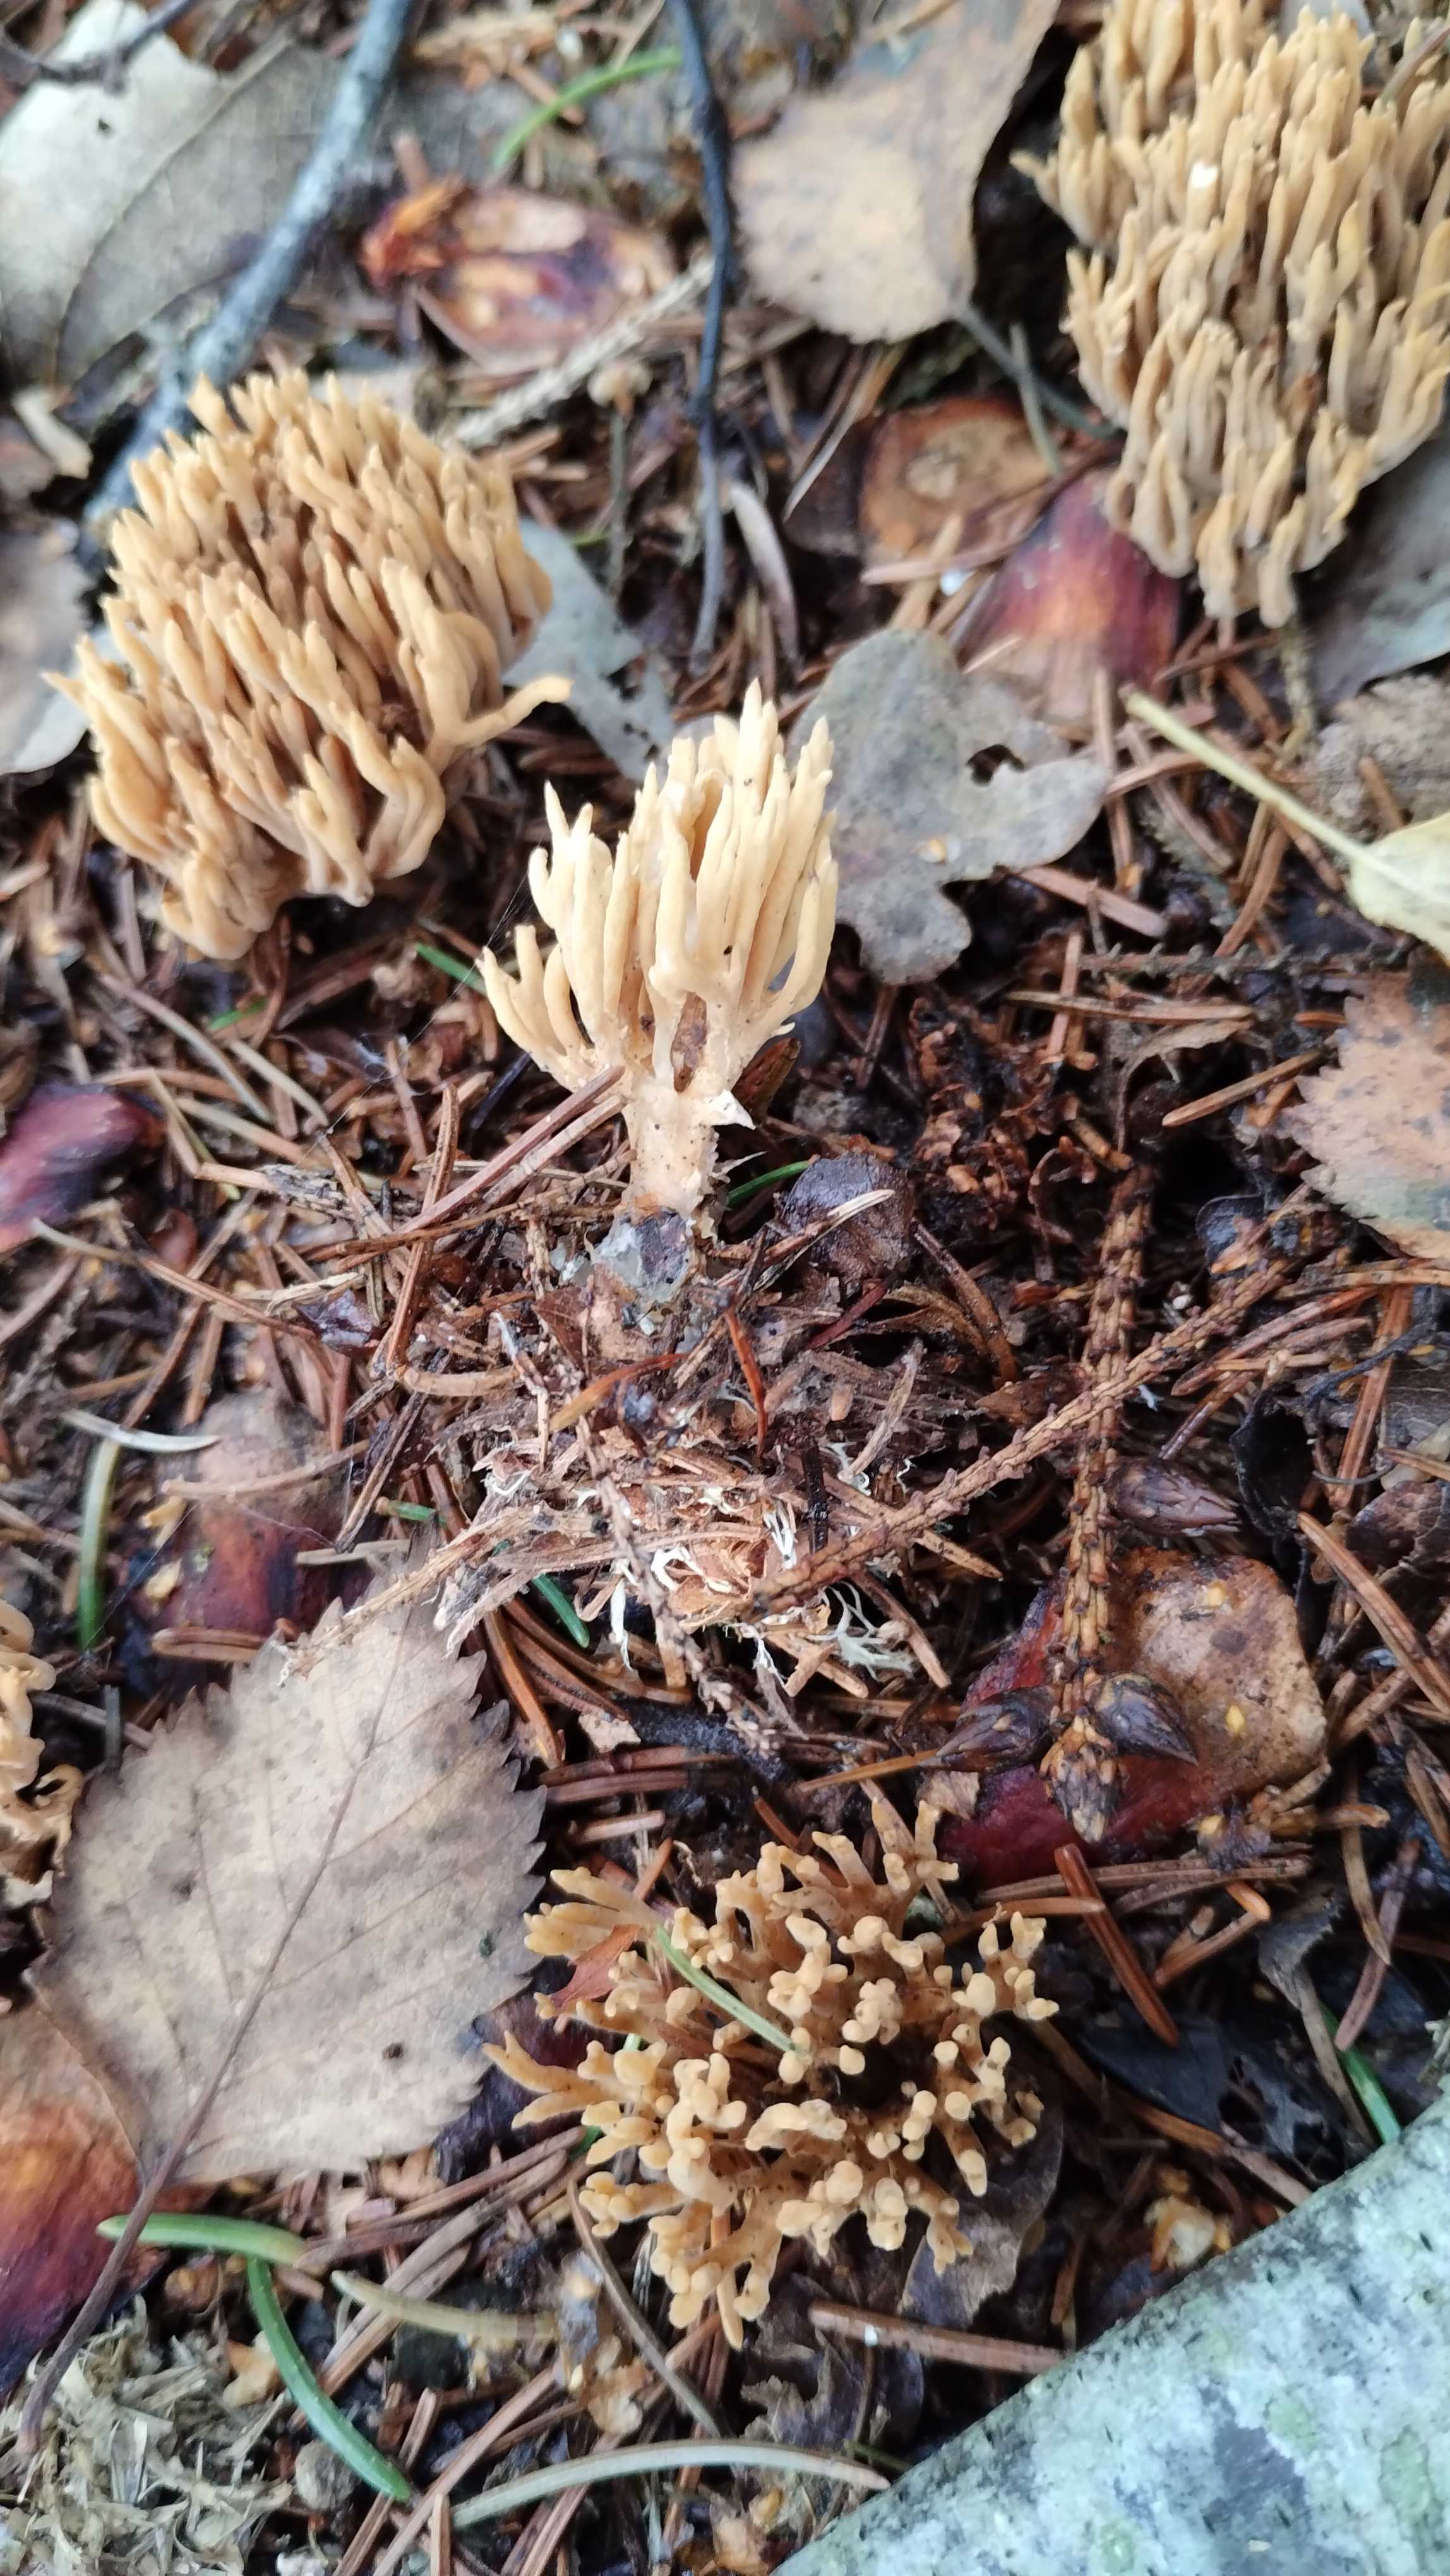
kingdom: Fungi
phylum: Basidiomycota
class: Agaricomycetes
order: Gomphales
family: Gomphaceae
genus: Phaeoclavulina
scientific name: Phaeoclavulina eumorpha
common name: gran-koralsvamp
